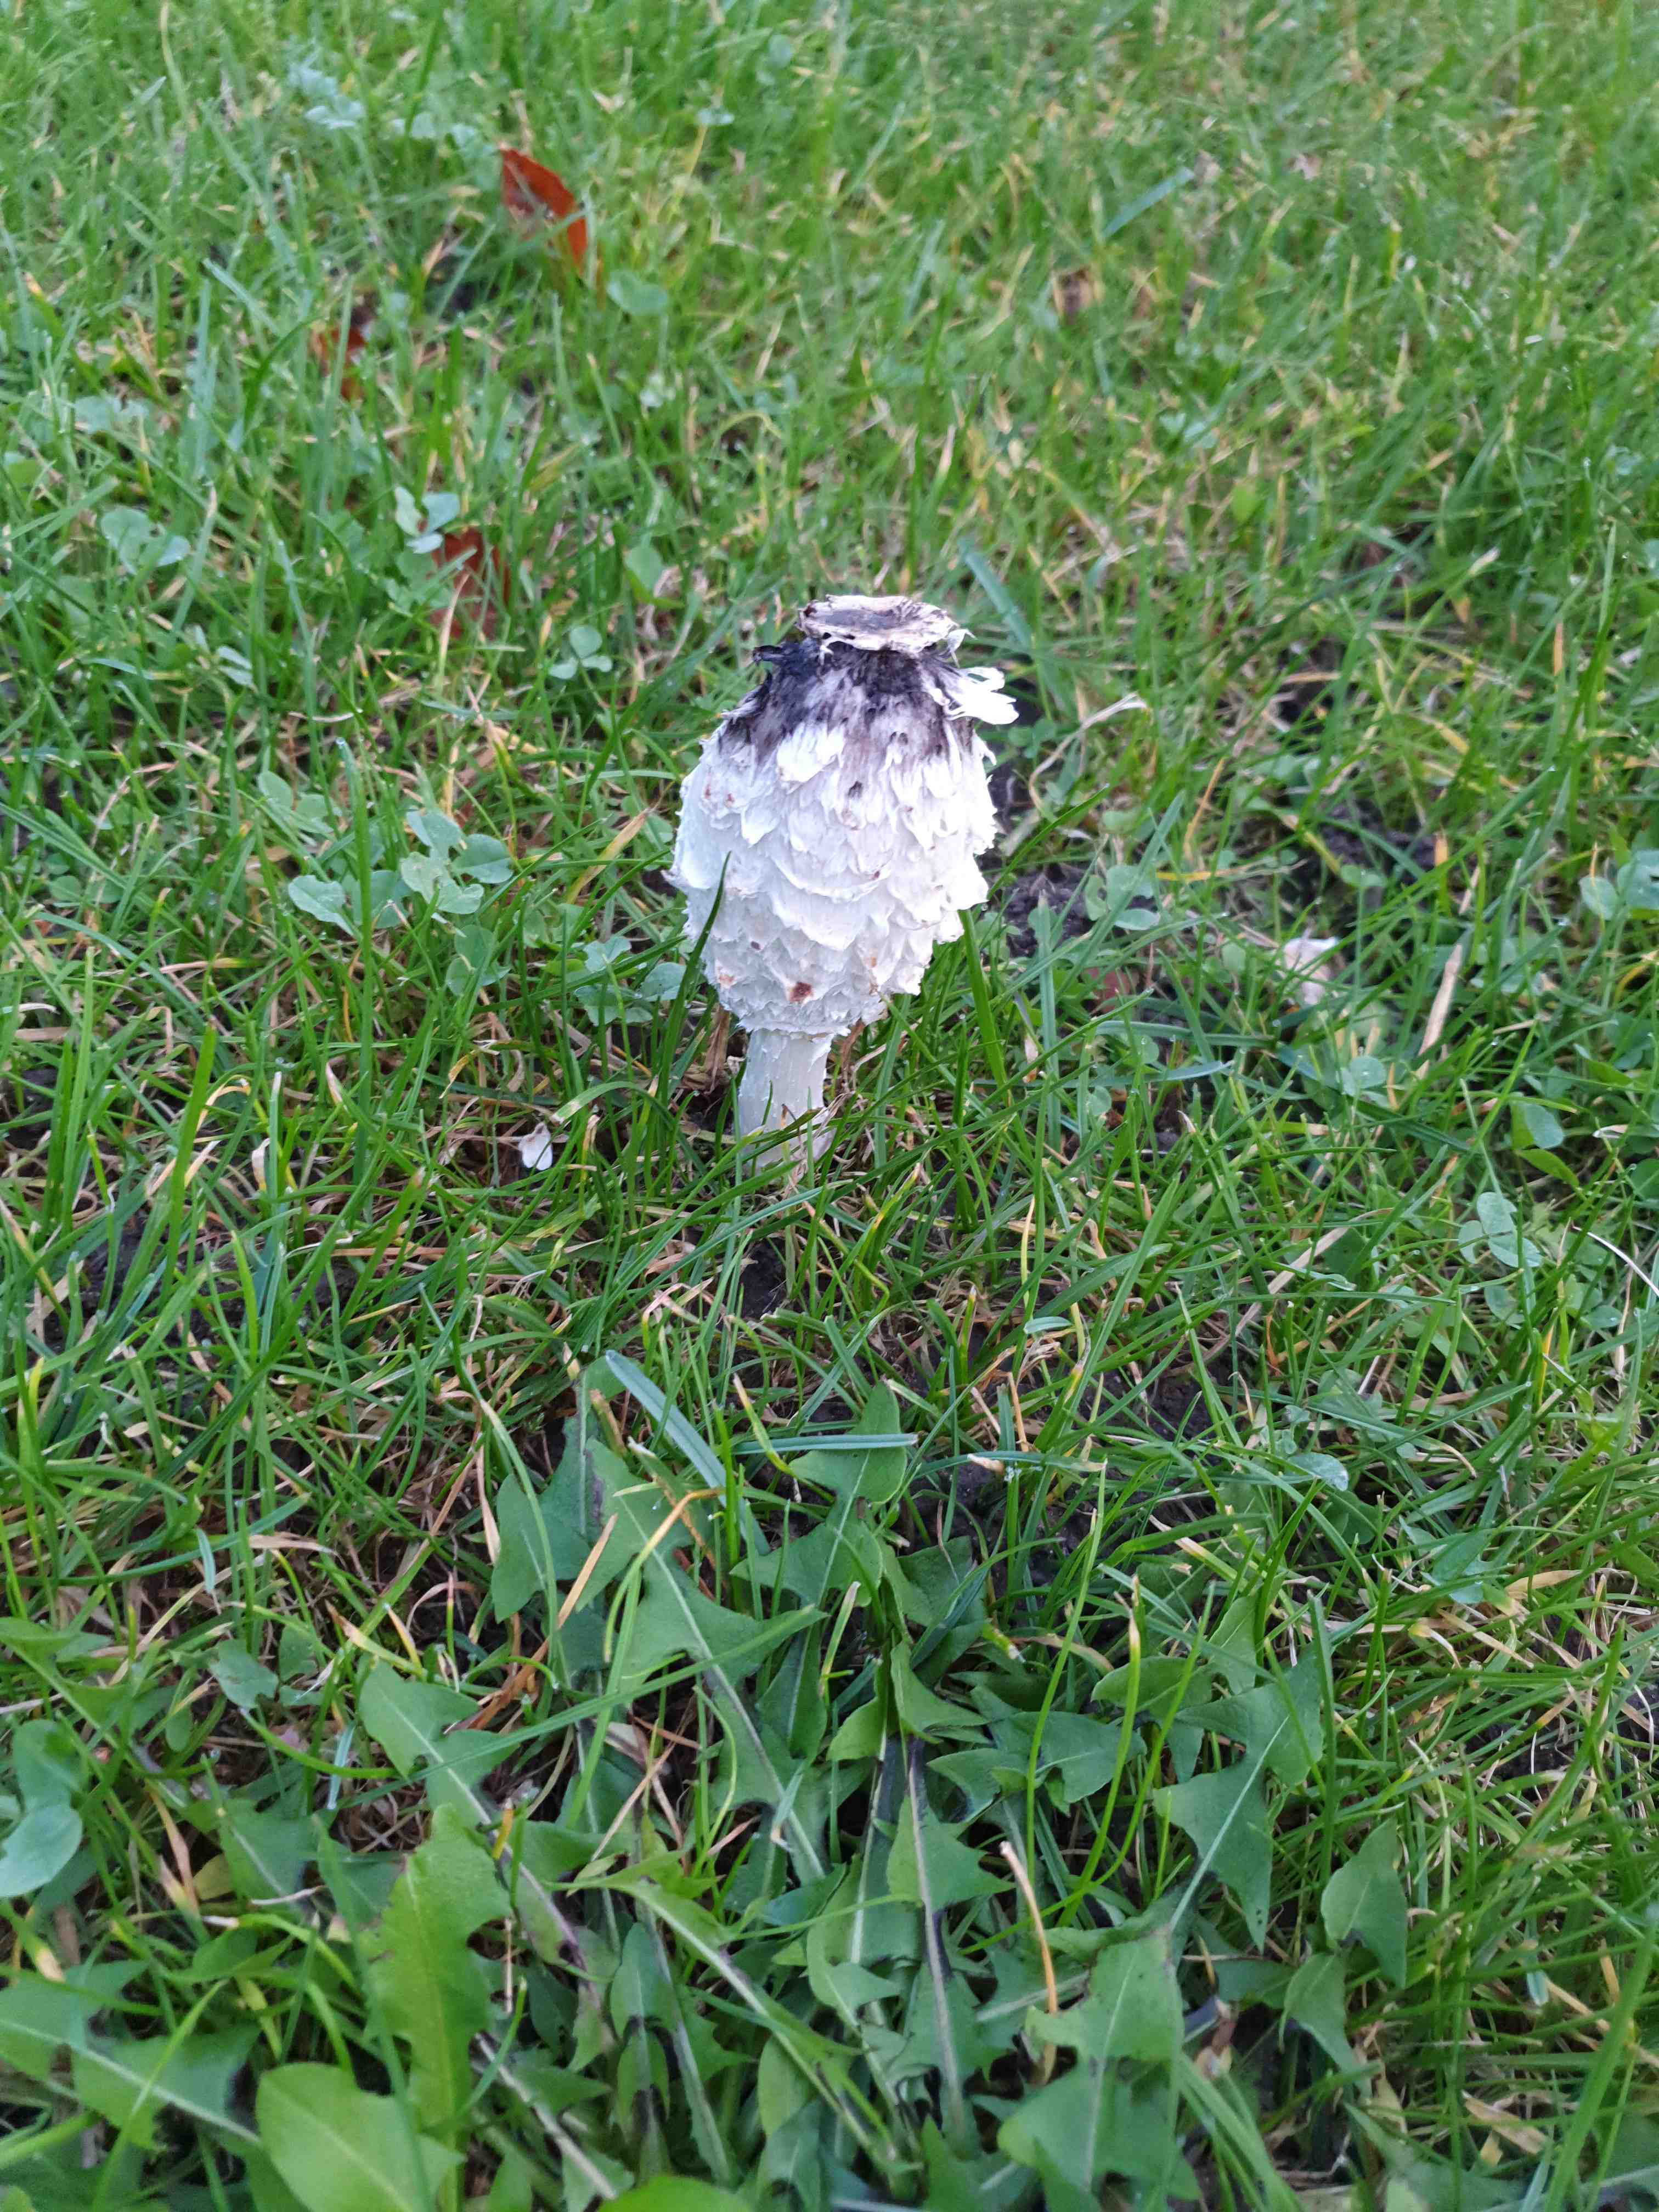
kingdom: Fungi
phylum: Basidiomycota
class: Agaricomycetes
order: Agaricales
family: Agaricaceae
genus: Coprinus
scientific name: Coprinus comatus
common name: stor parykhat
